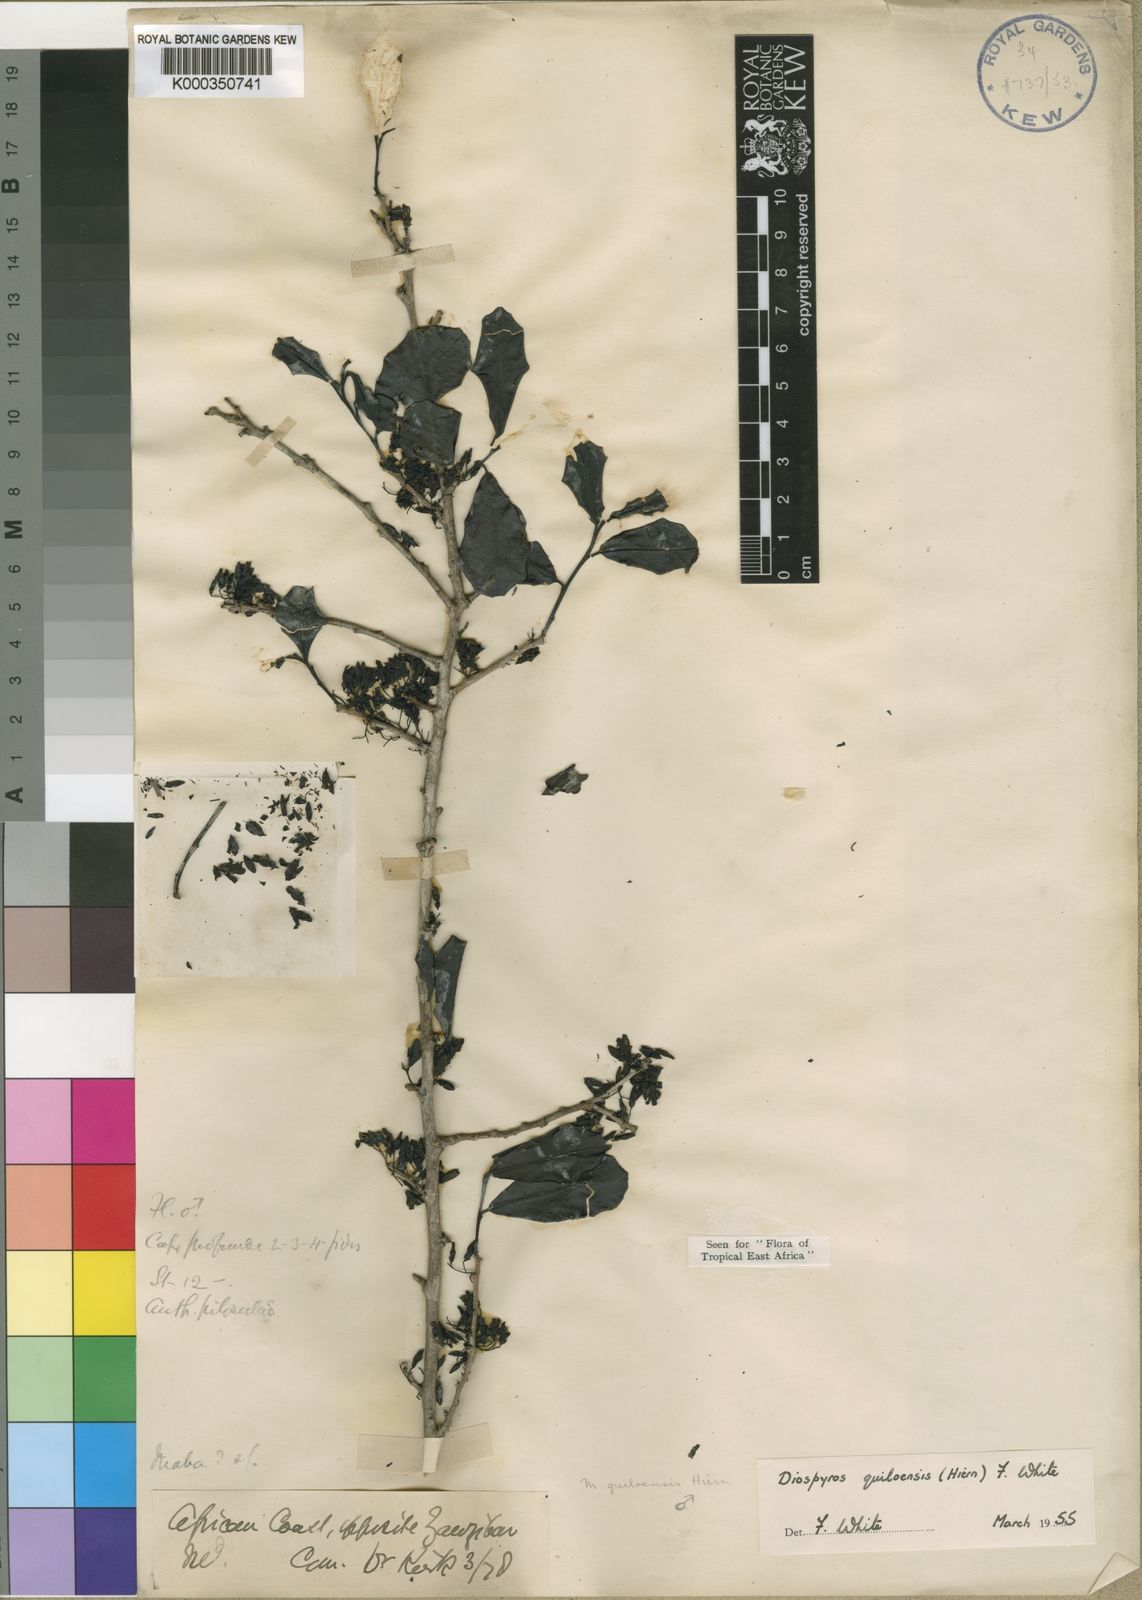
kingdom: Plantae
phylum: Tracheophyta
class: Magnoliopsida
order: Ericales
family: Ebenaceae
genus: Diospyros
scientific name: Diospyros quiloensis
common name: Crocodile bark jackal berry
